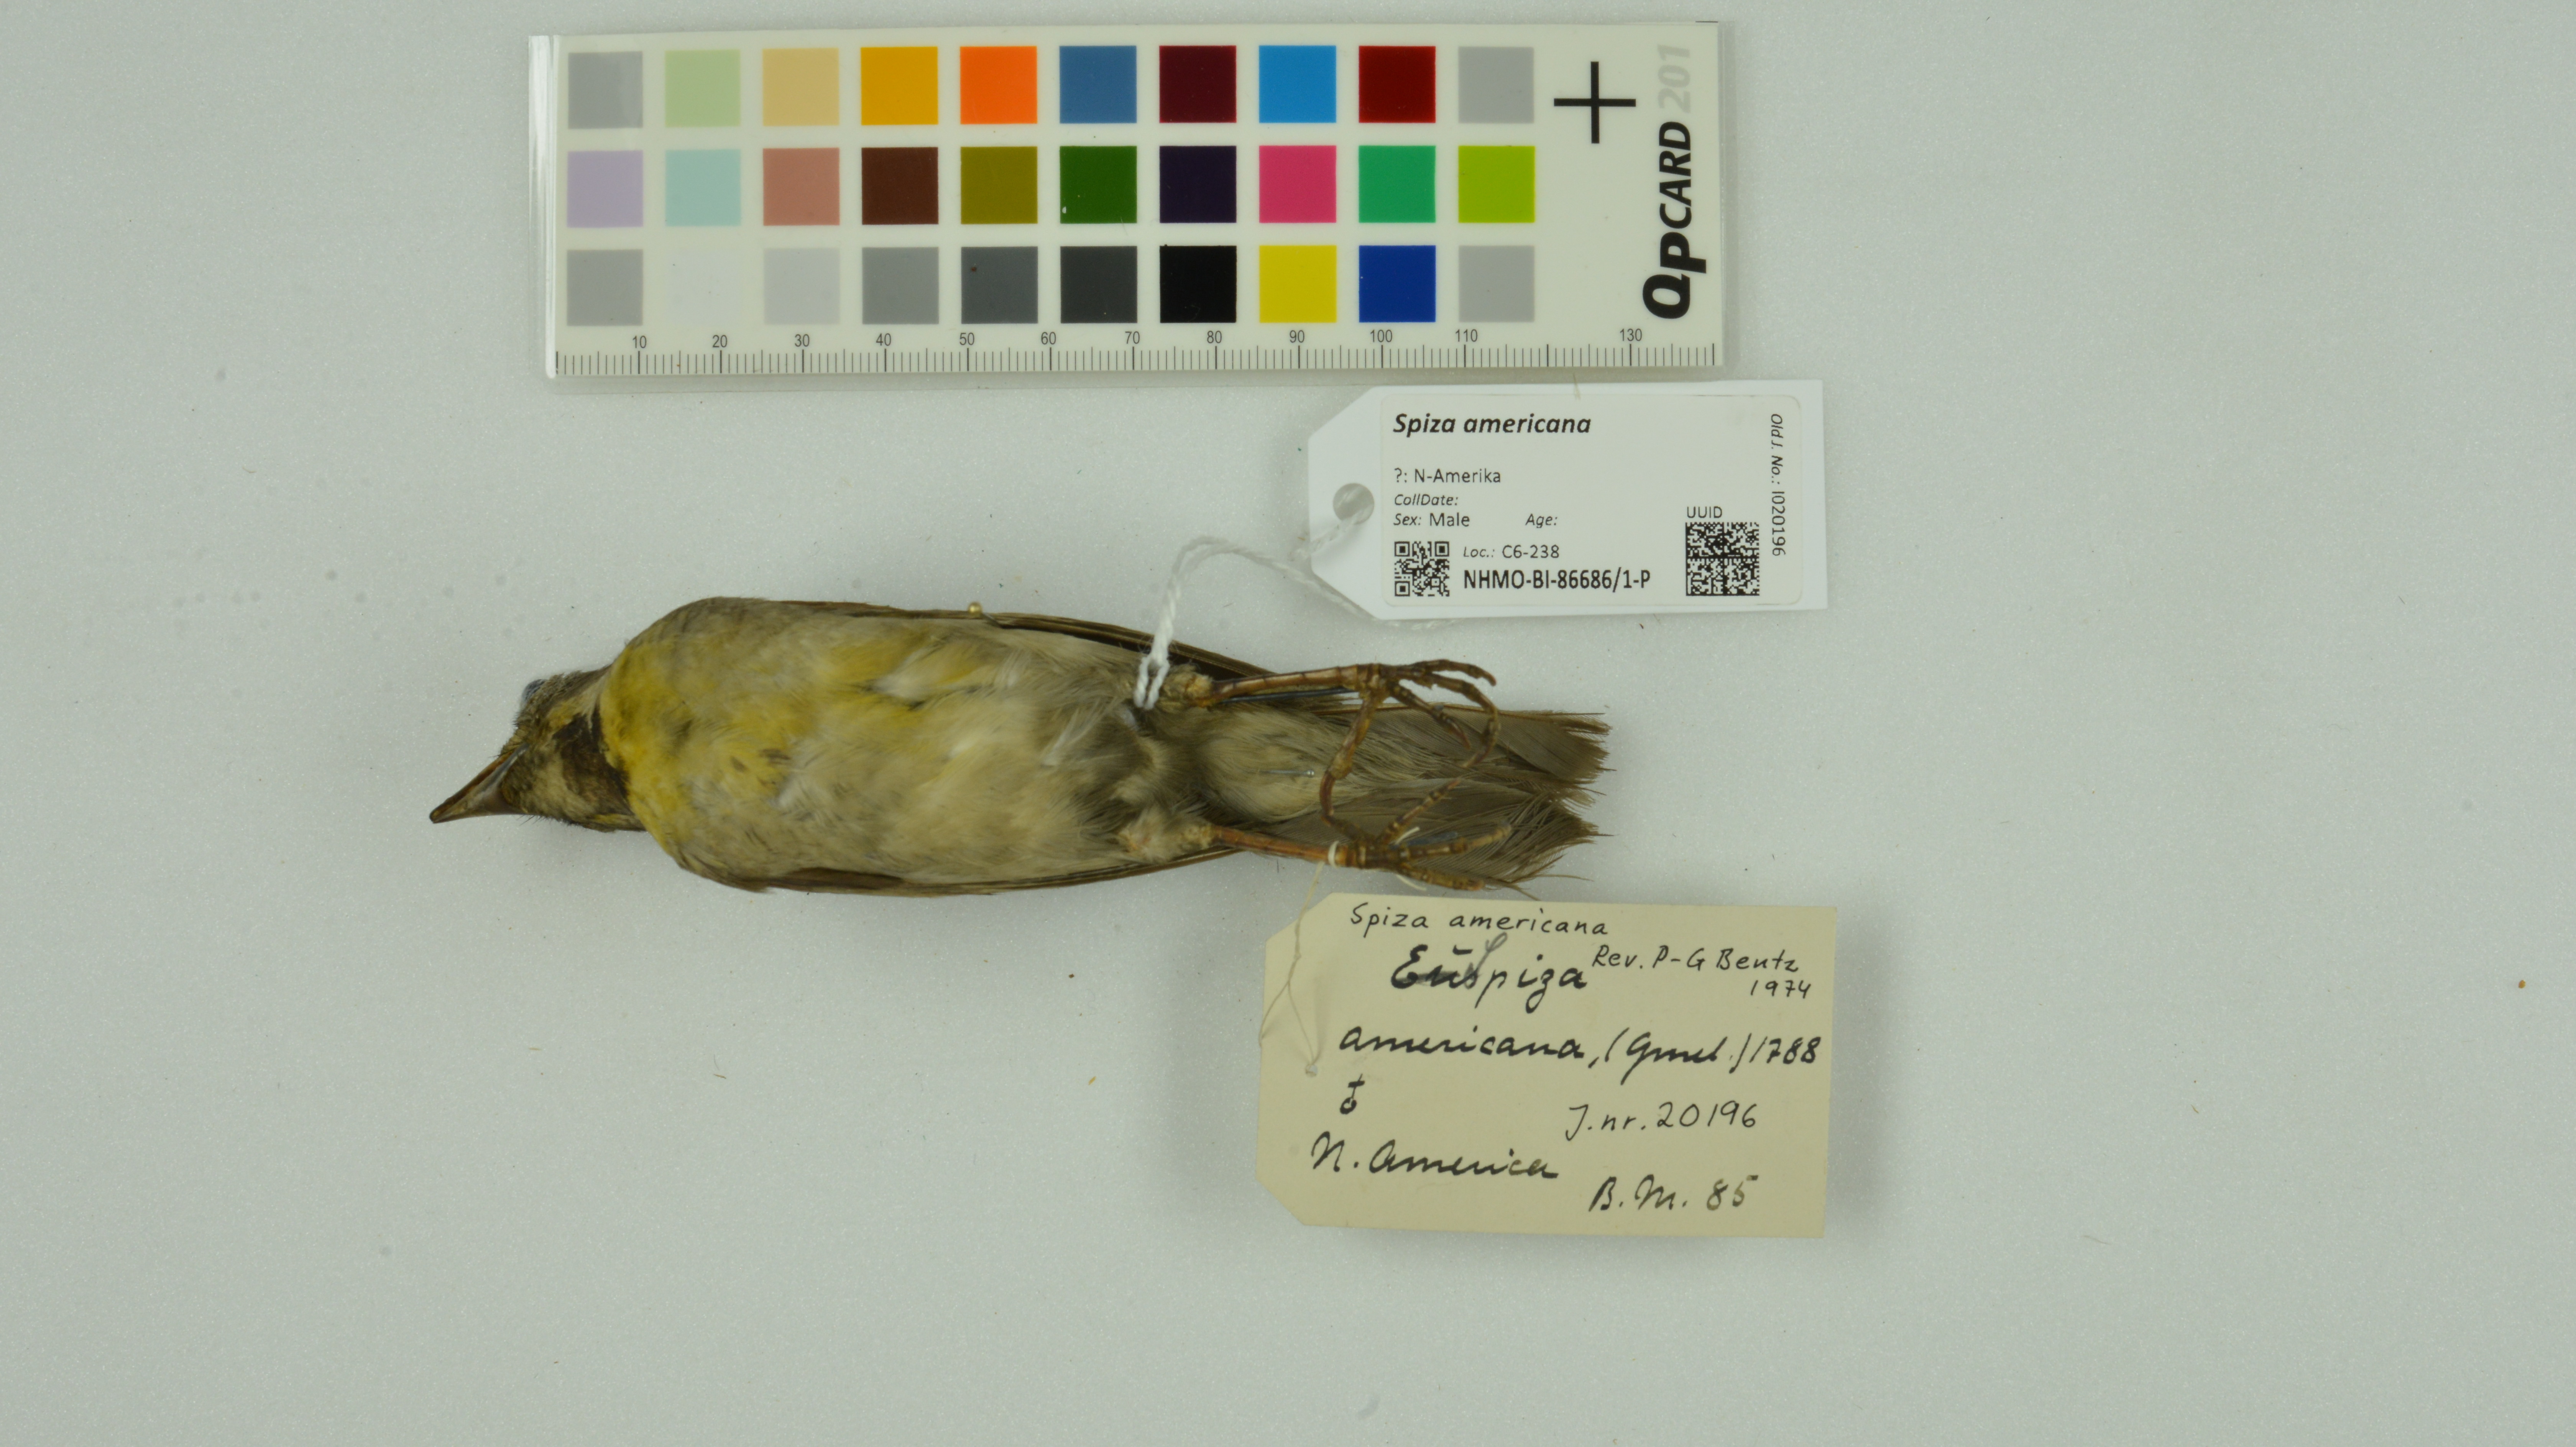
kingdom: Animalia
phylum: Chordata
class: Aves
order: Passeriformes
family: Cardinalidae
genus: Spiza
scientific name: Spiza americana
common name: Dickcissel
